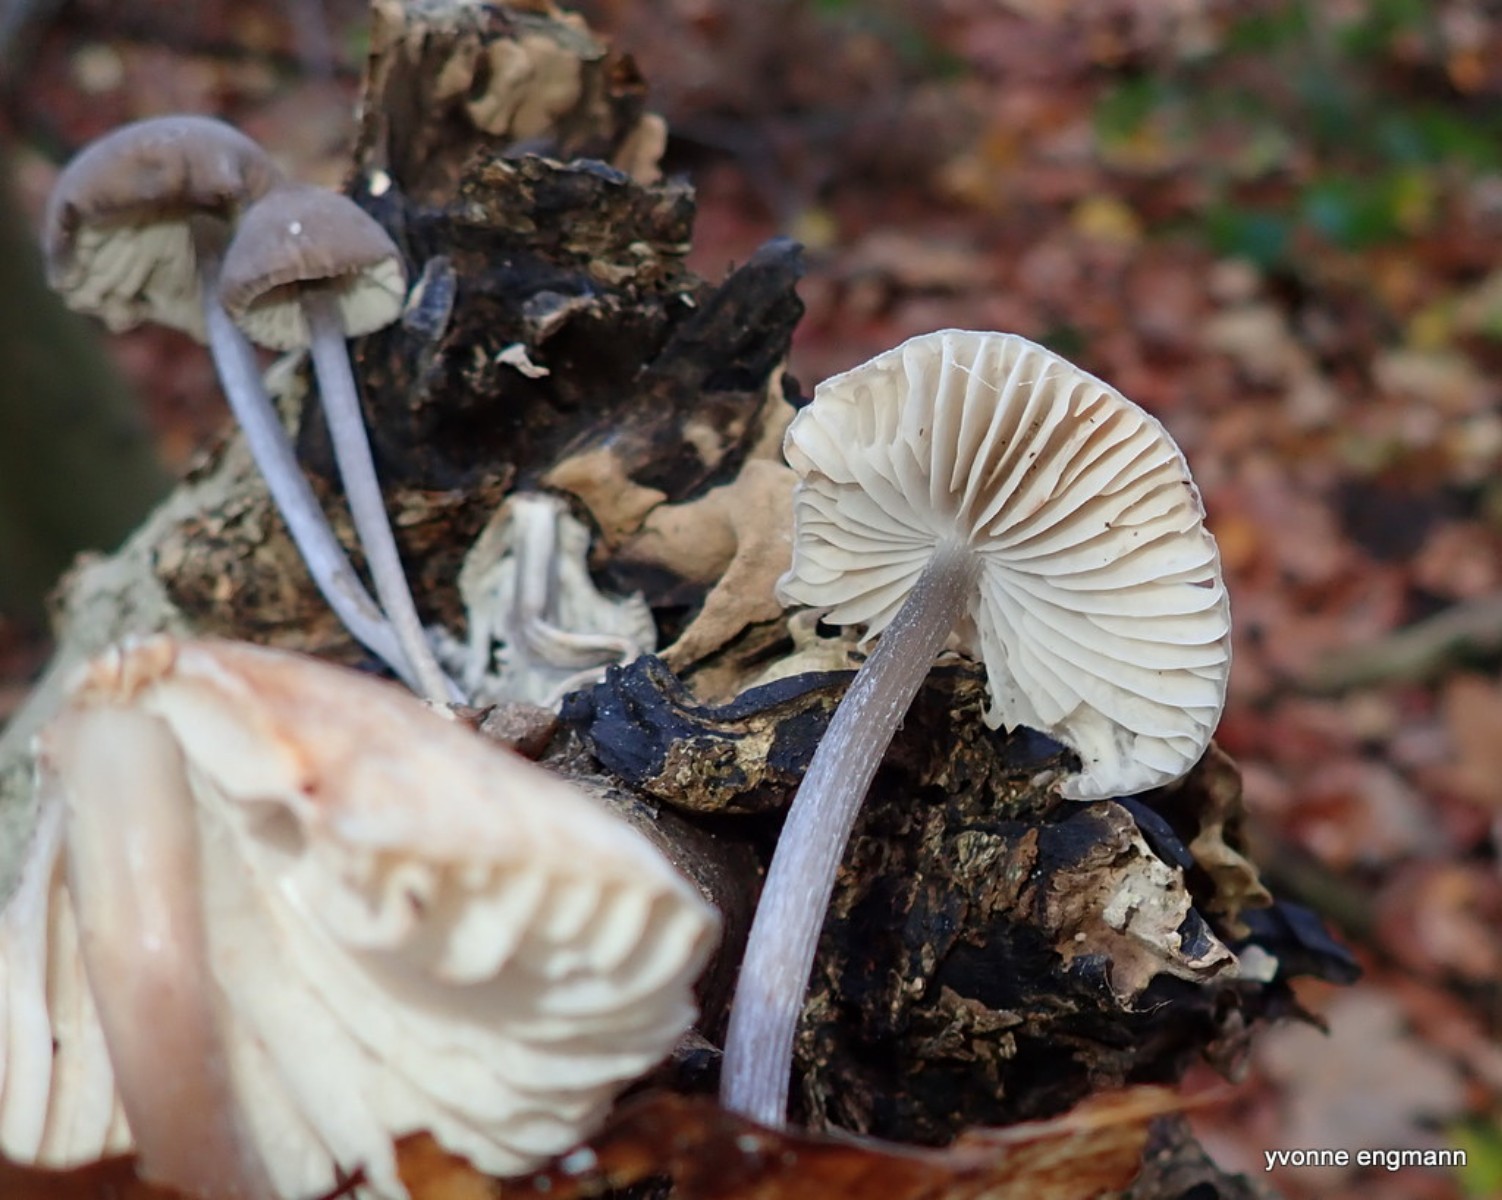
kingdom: Fungi
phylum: Basidiomycota
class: Agaricomycetes
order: Agaricales
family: Mycenaceae
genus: Mycena
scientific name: Mycena polygramma
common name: mangestribet huesvamp
